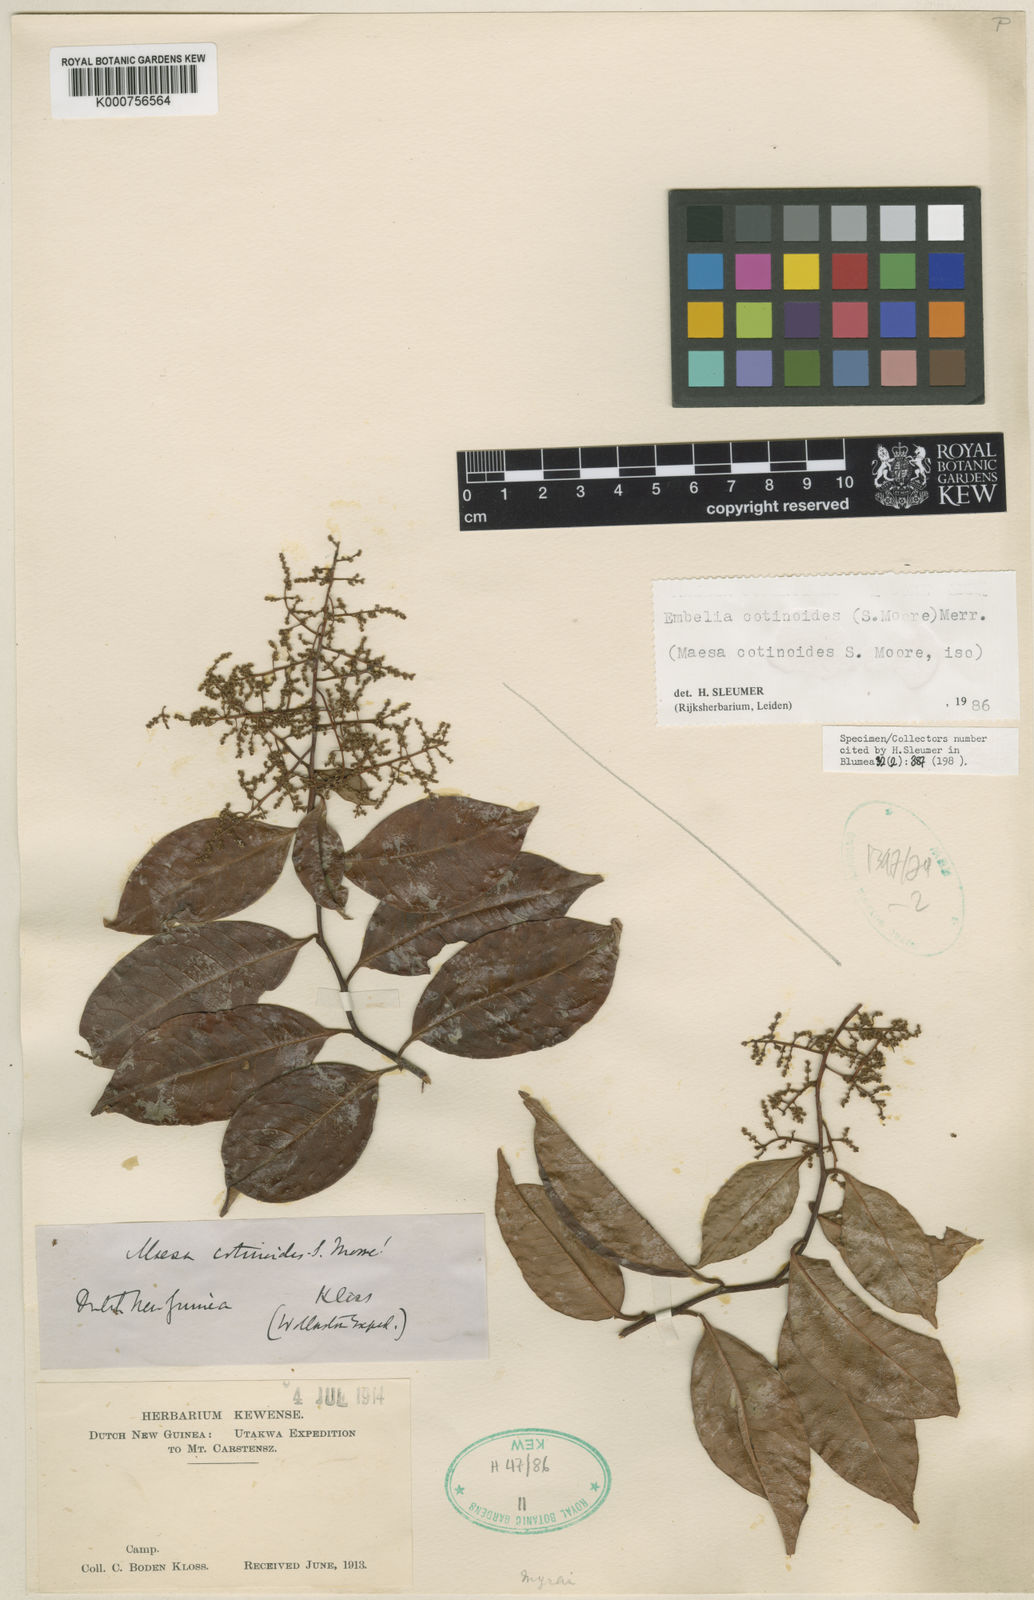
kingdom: Plantae
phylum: Tracheophyta
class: Magnoliopsida
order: Ericales
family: Primulaceae
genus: Embelia
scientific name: Embelia cotinoides
